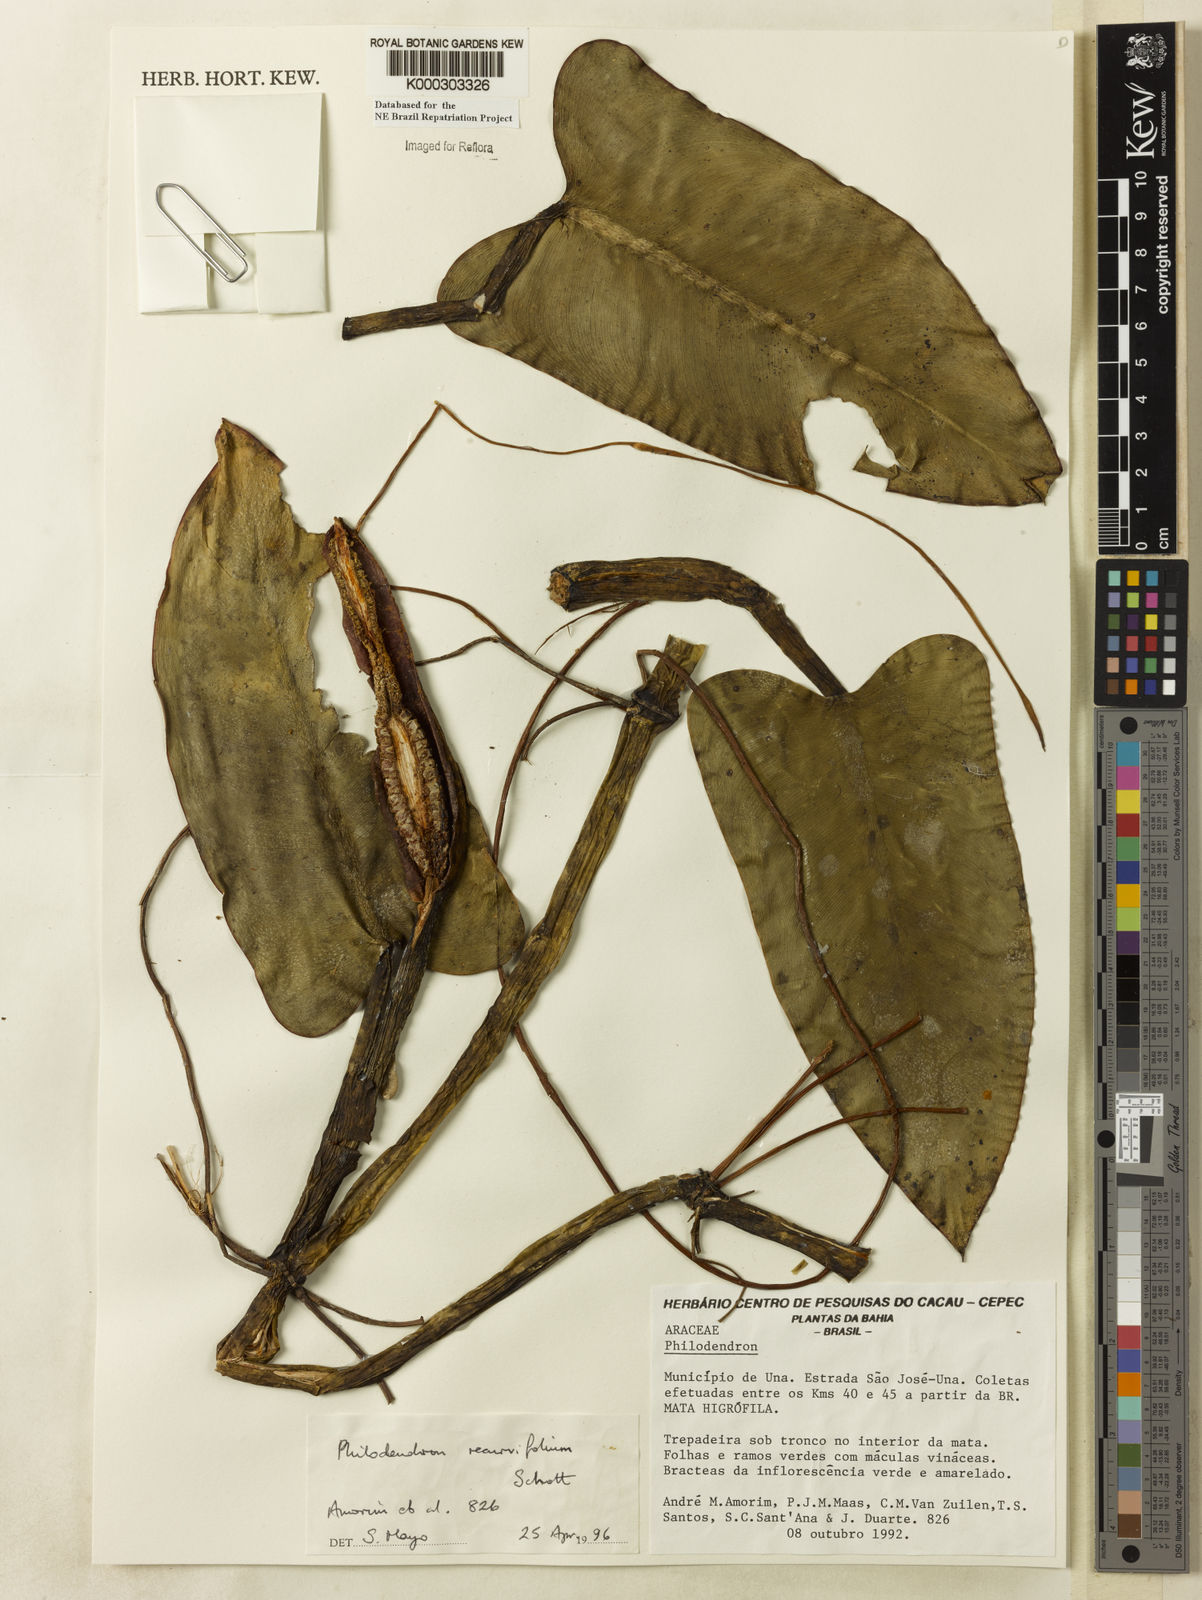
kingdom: Plantae
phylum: Tracheophyta
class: Liliopsida
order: Alismatales
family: Araceae
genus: Philodendron
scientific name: Philodendron recurvifolium
